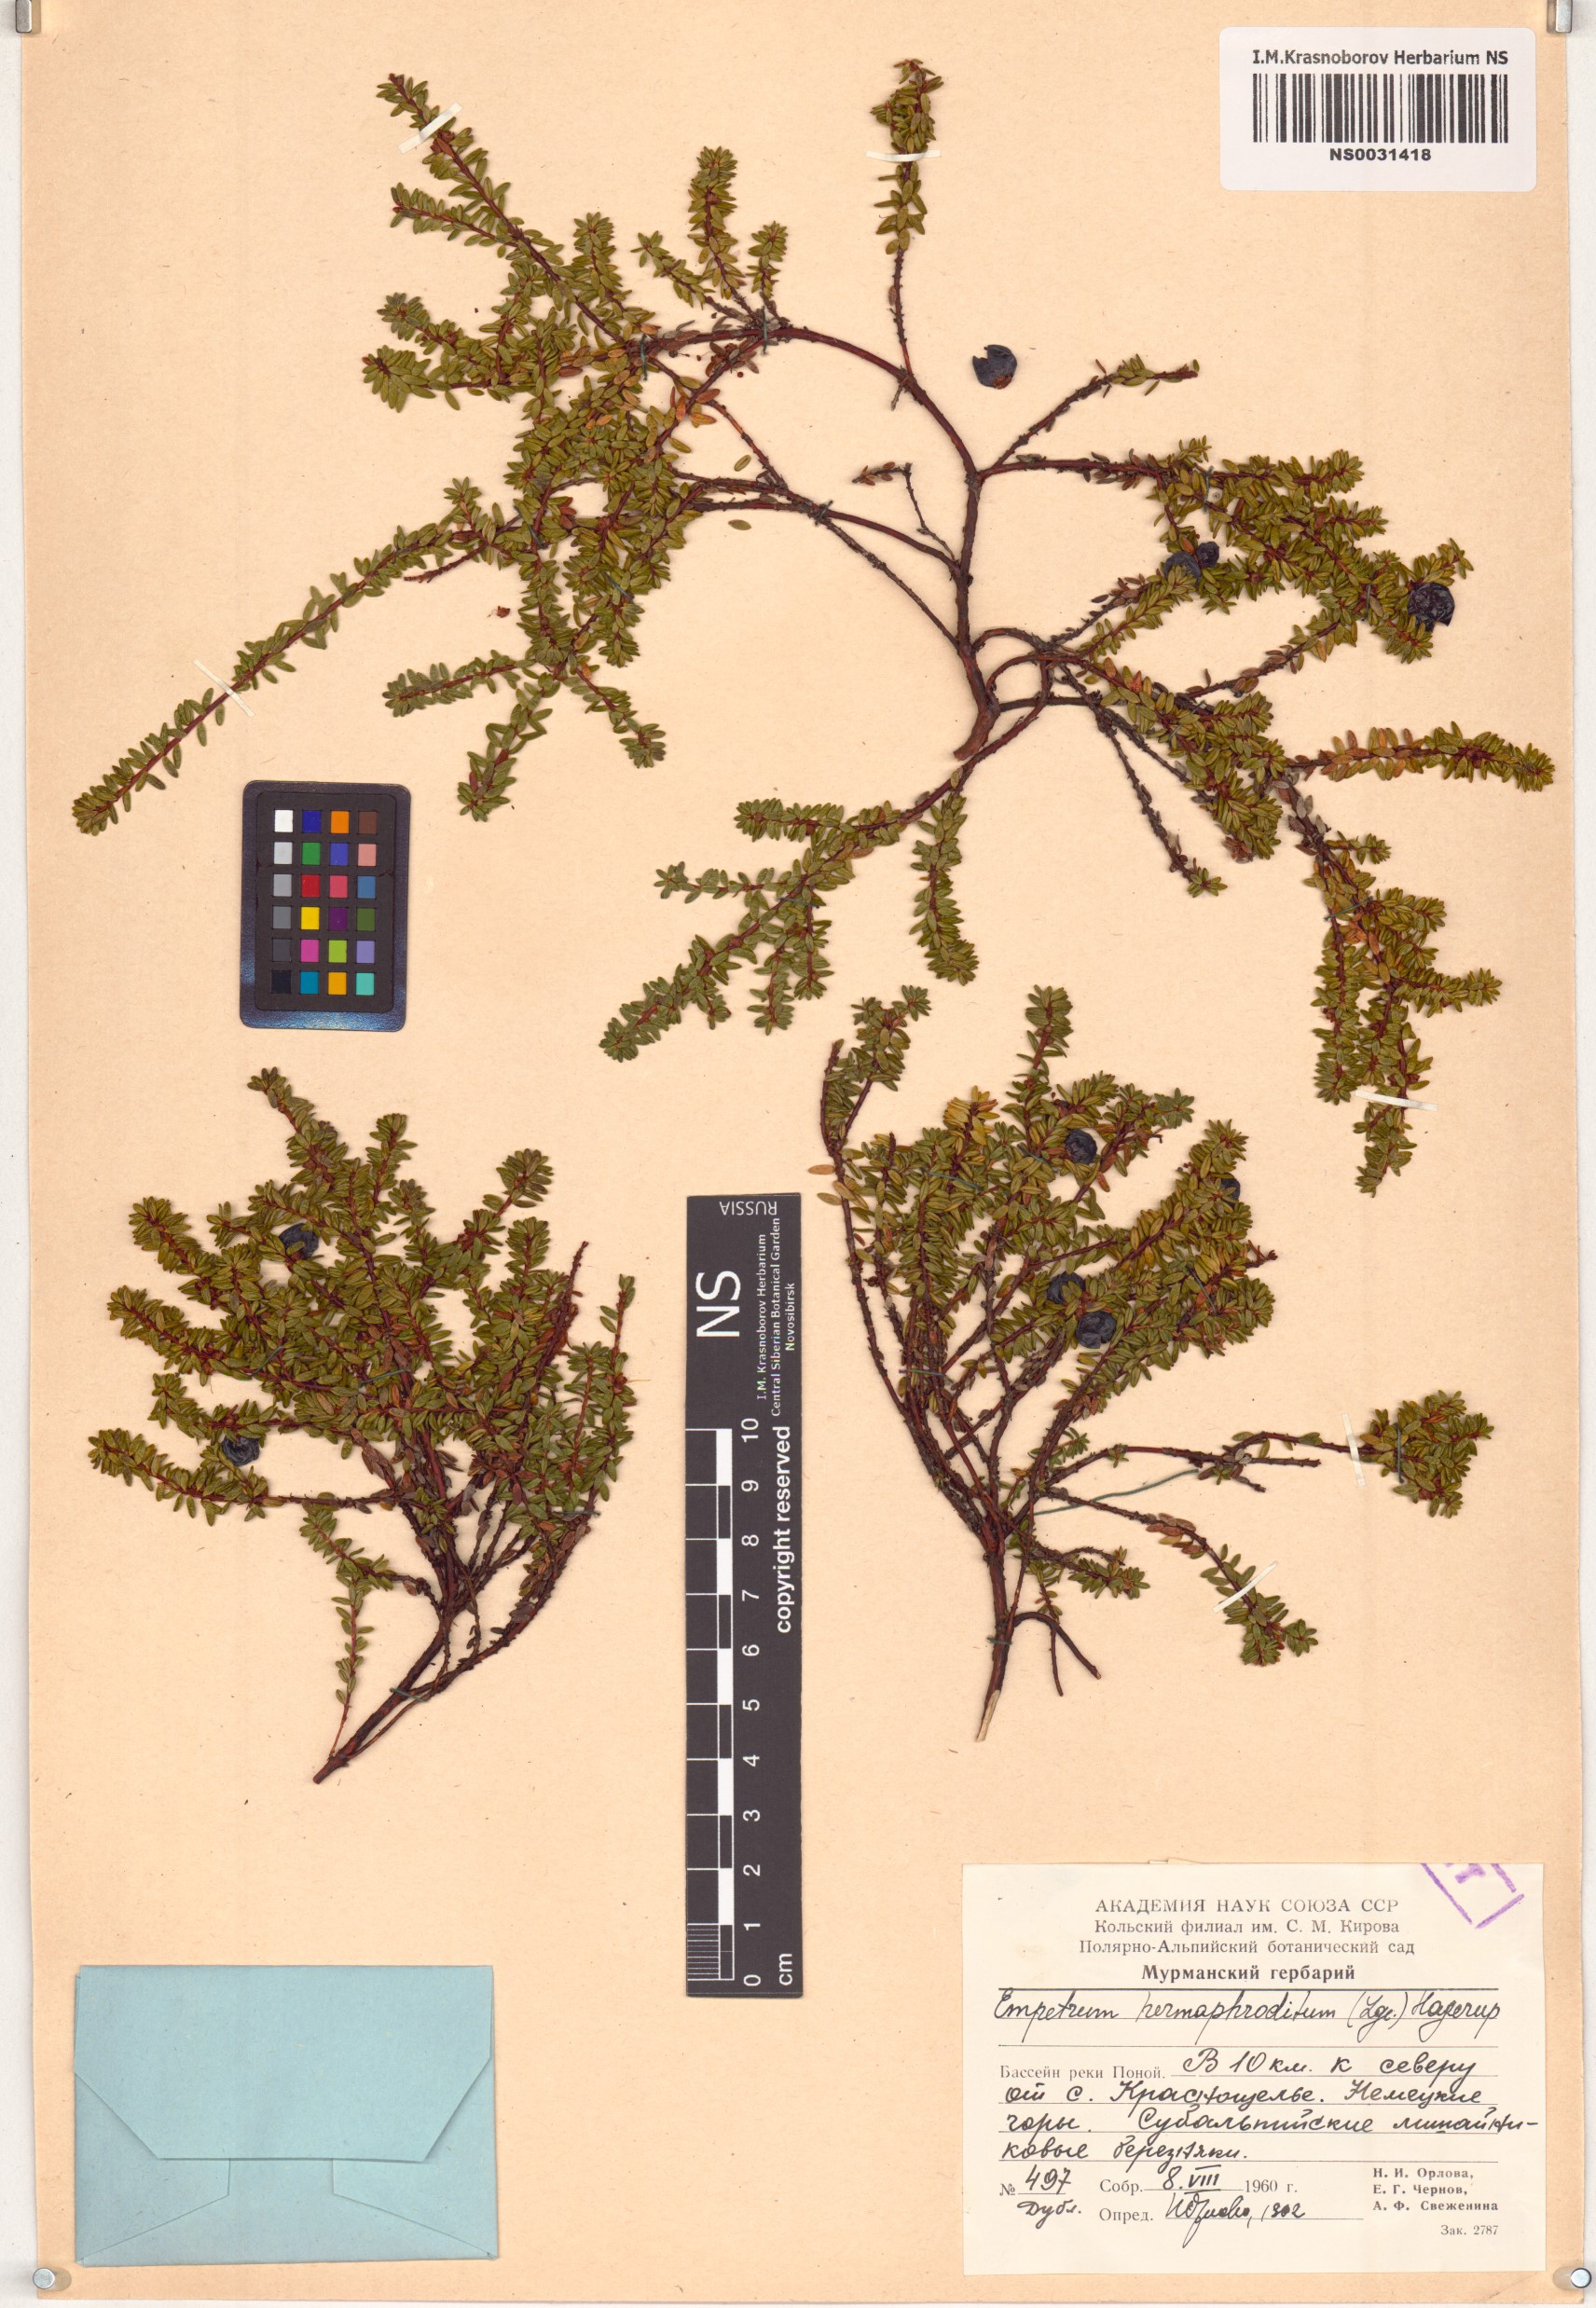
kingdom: Plantae
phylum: Tracheophyta
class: Magnoliopsida
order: Ericales
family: Ericaceae
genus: Empetrum
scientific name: Empetrum hermaphroditum
